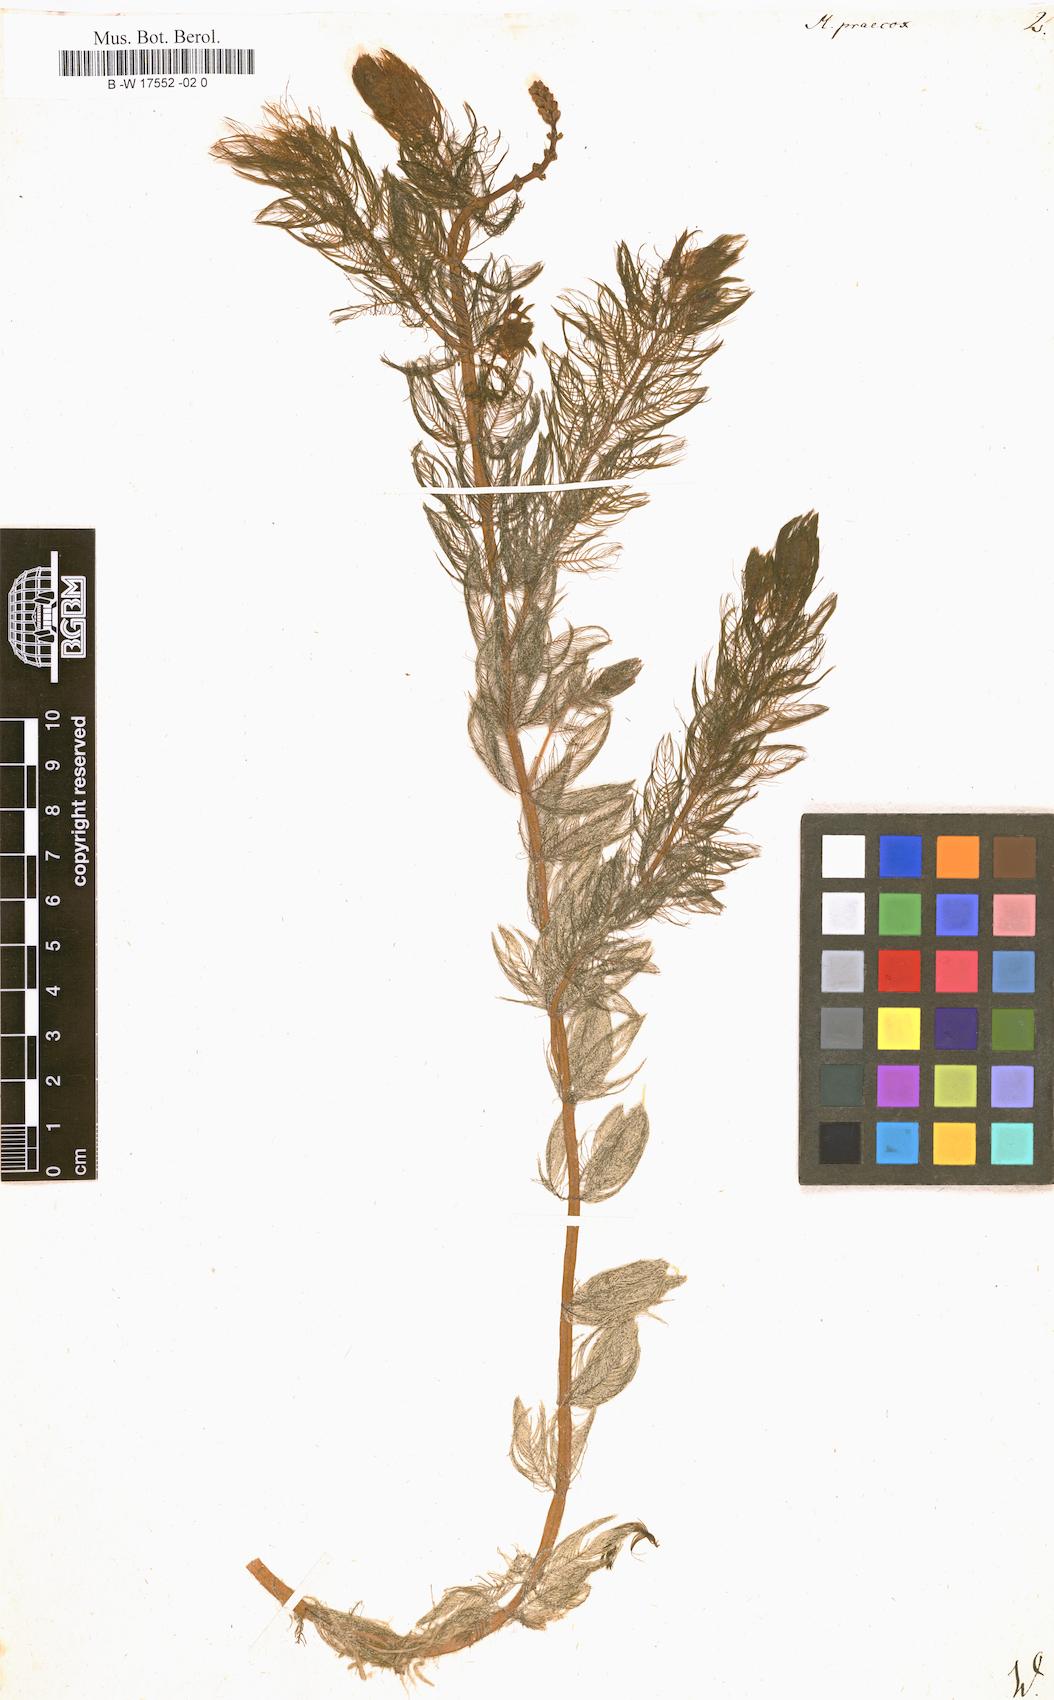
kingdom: Plantae
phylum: Tracheophyta
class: Magnoliopsida
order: Saxifragales
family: Haloragaceae
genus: Myriophyllum
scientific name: Myriophyllum
